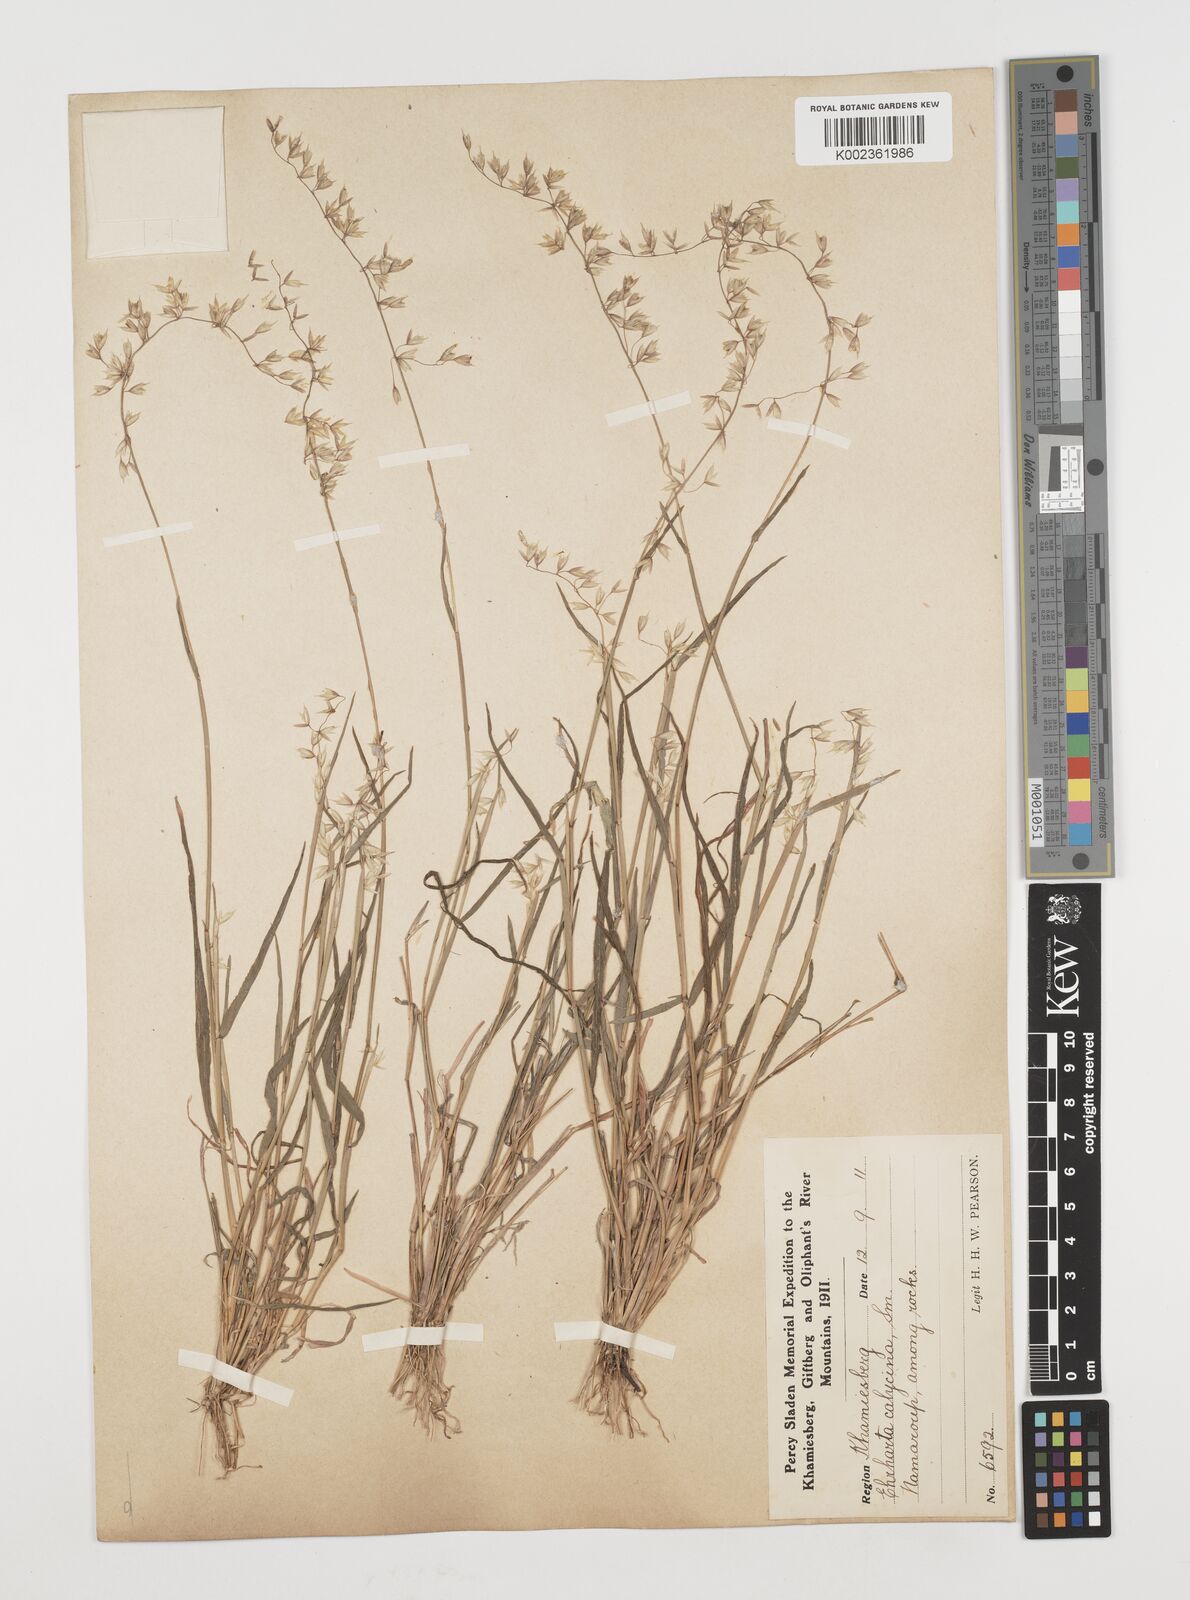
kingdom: Plantae
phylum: Tracheophyta
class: Liliopsida
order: Poales
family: Poaceae
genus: Ehrharta
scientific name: Ehrharta calycina
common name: Perennial veldtgrass
